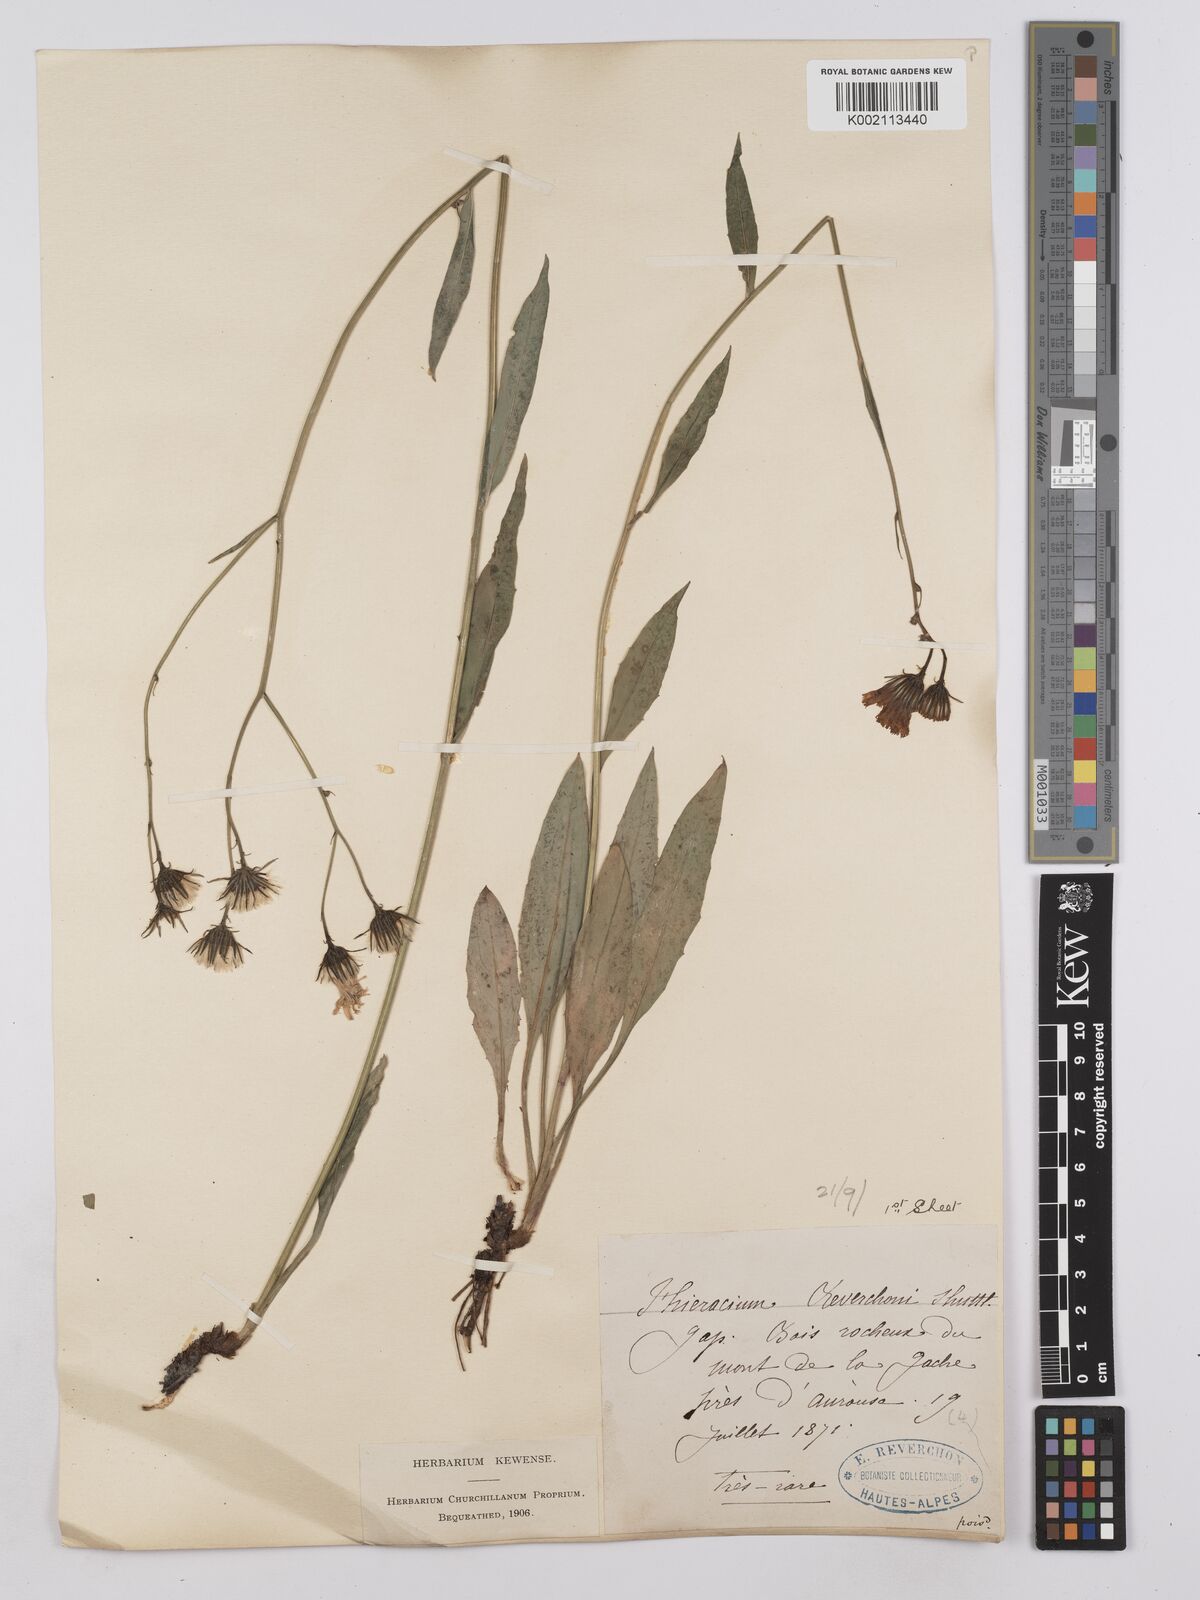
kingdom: Plantae
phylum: Tracheophyta
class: Magnoliopsida
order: Asterales
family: Asteraceae
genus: Hieracium
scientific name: Hieracium neyranum
